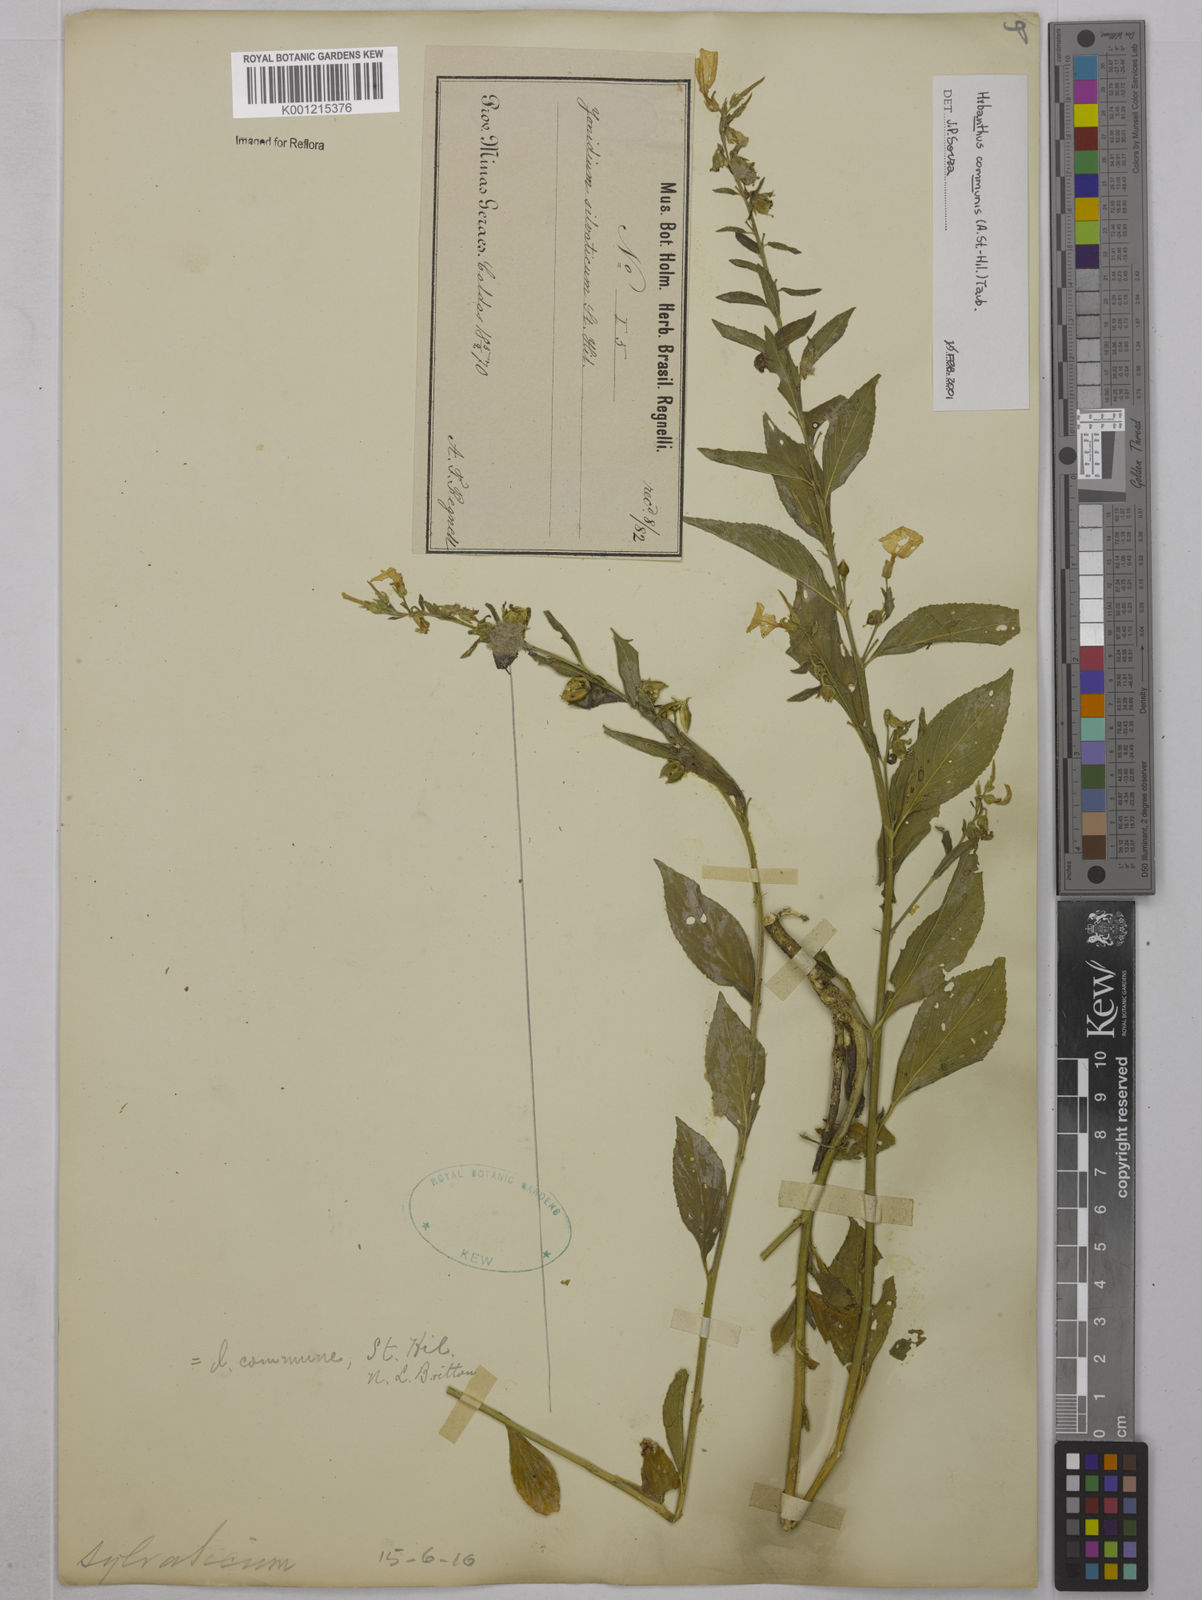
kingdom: Plantae
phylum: Tracheophyta
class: Magnoliopsida
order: Malpighiales
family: Violaceae
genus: Pombalia
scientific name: Pombalia communis
